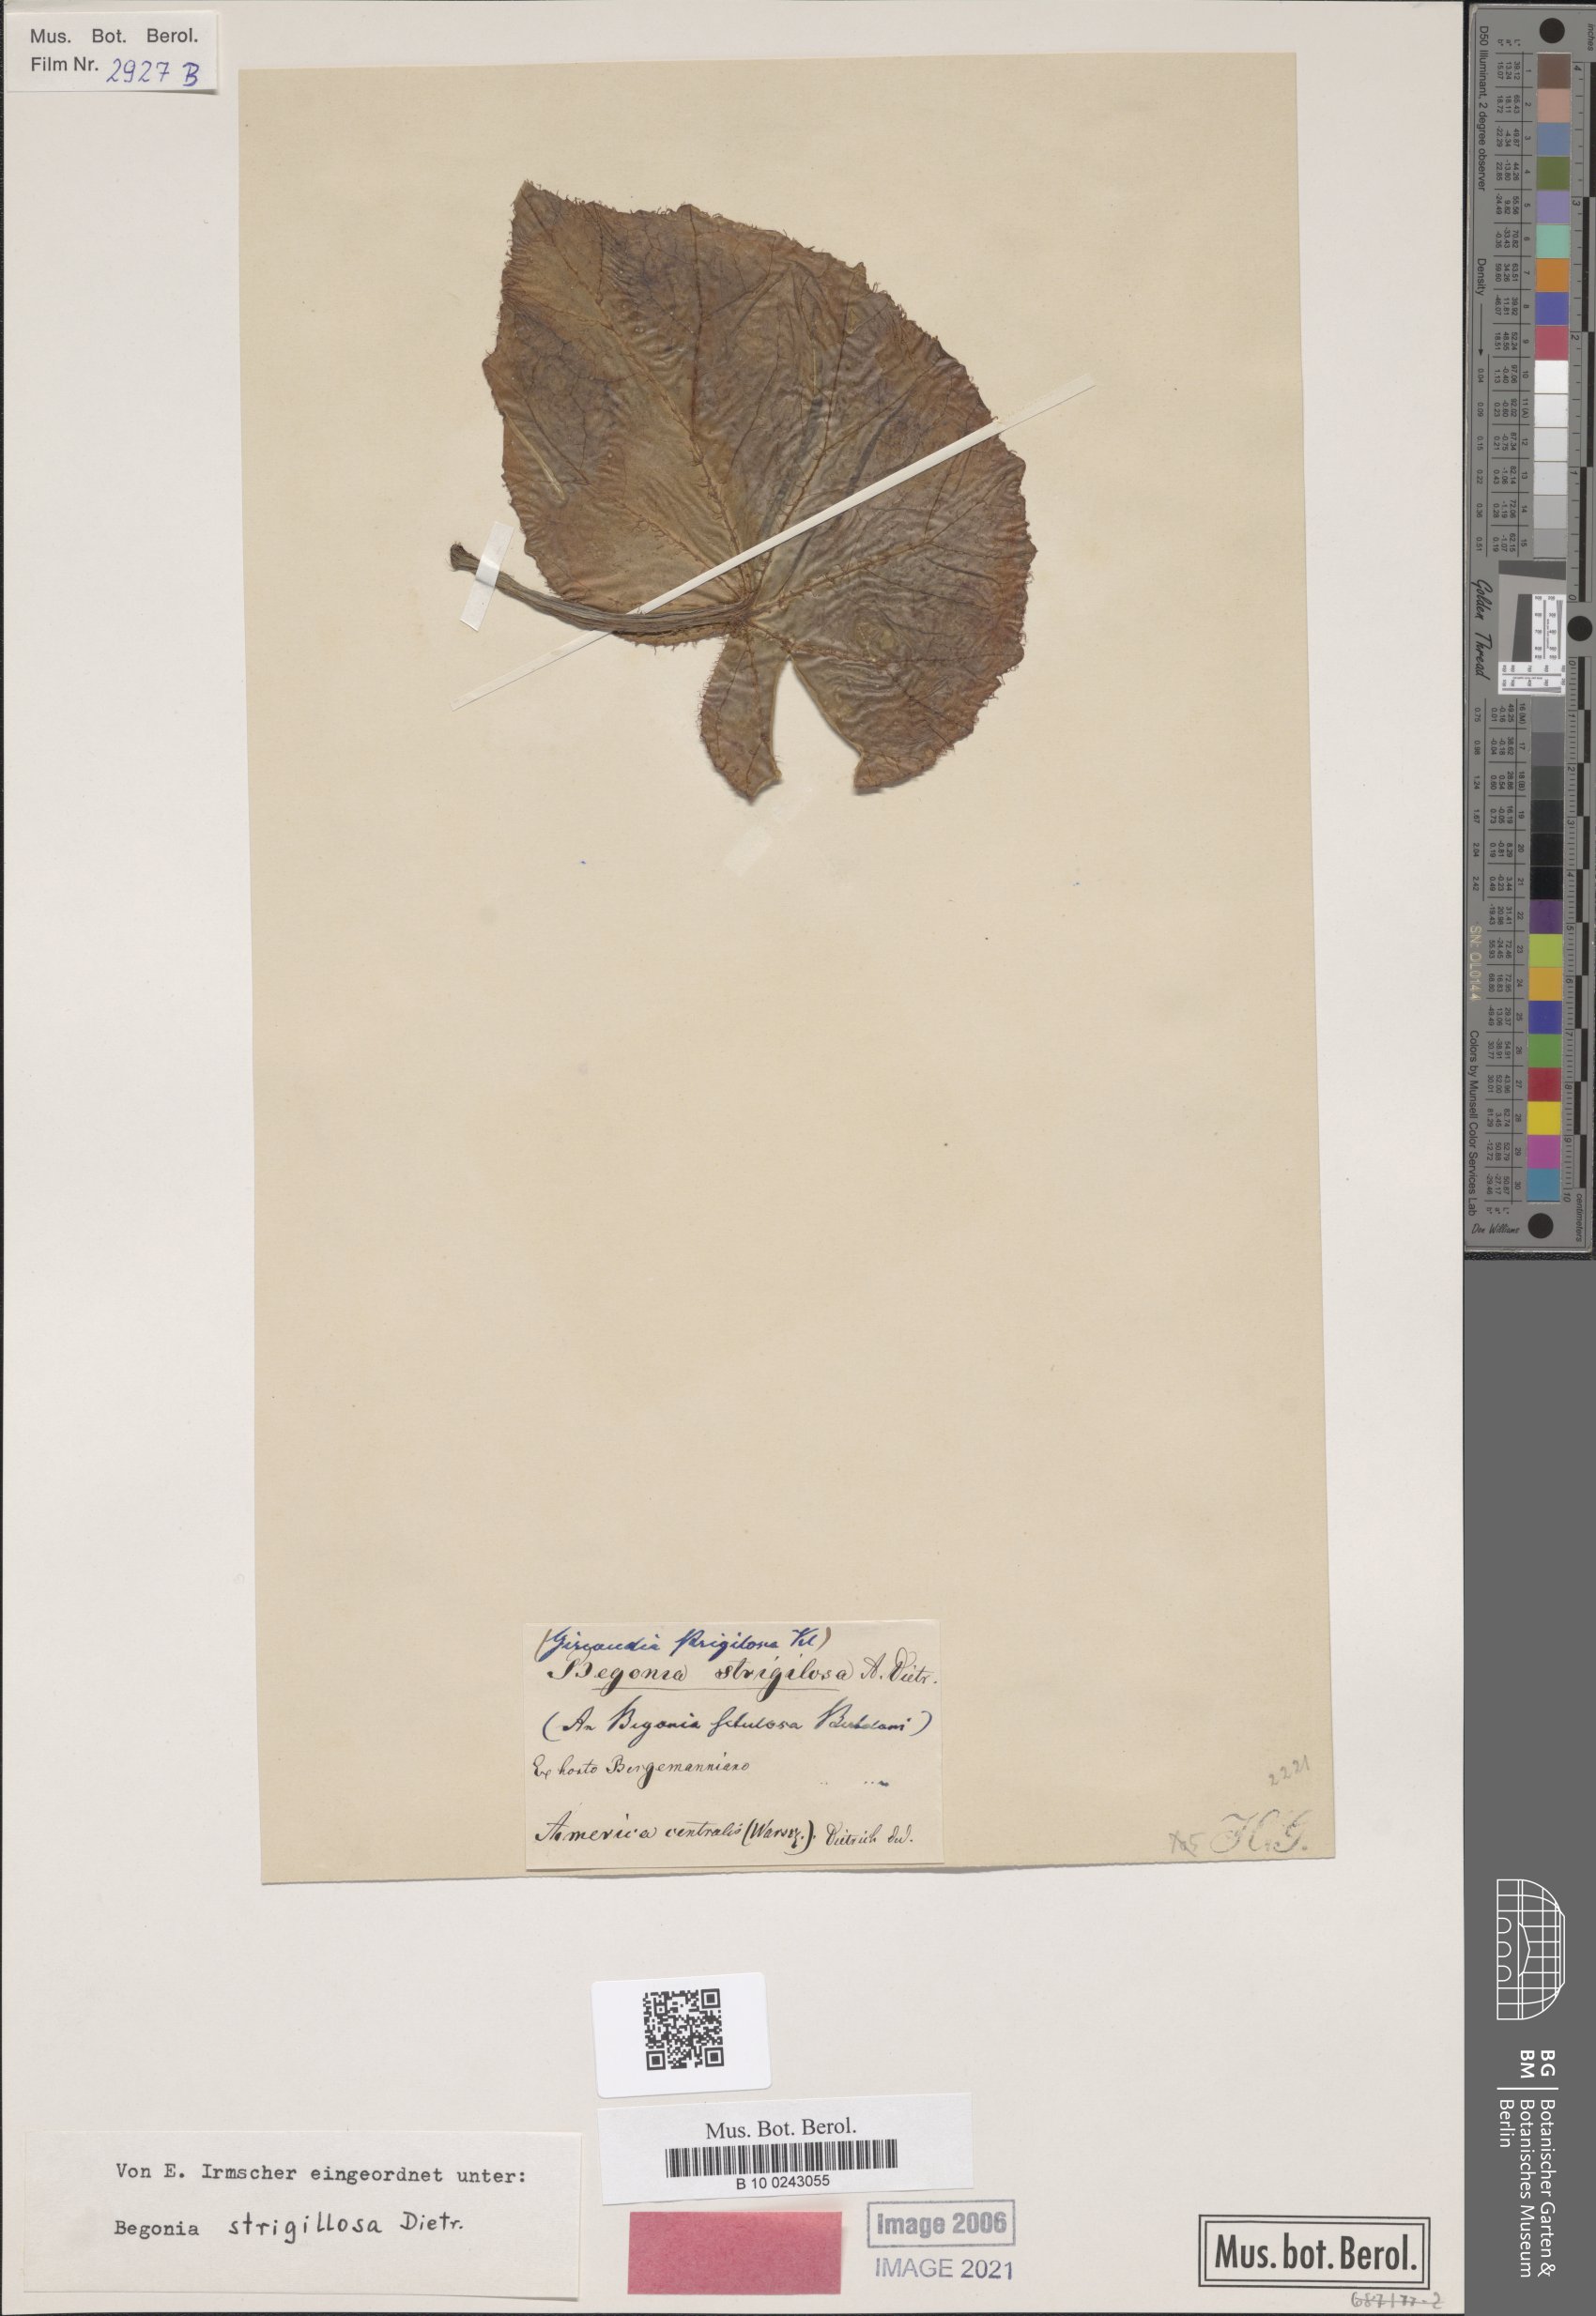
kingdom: Plantae
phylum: Tracheophyta
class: Magnoliopsida
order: Cucurbitales
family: Begoniaceae
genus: Begonia
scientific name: Begonia strigillosa
